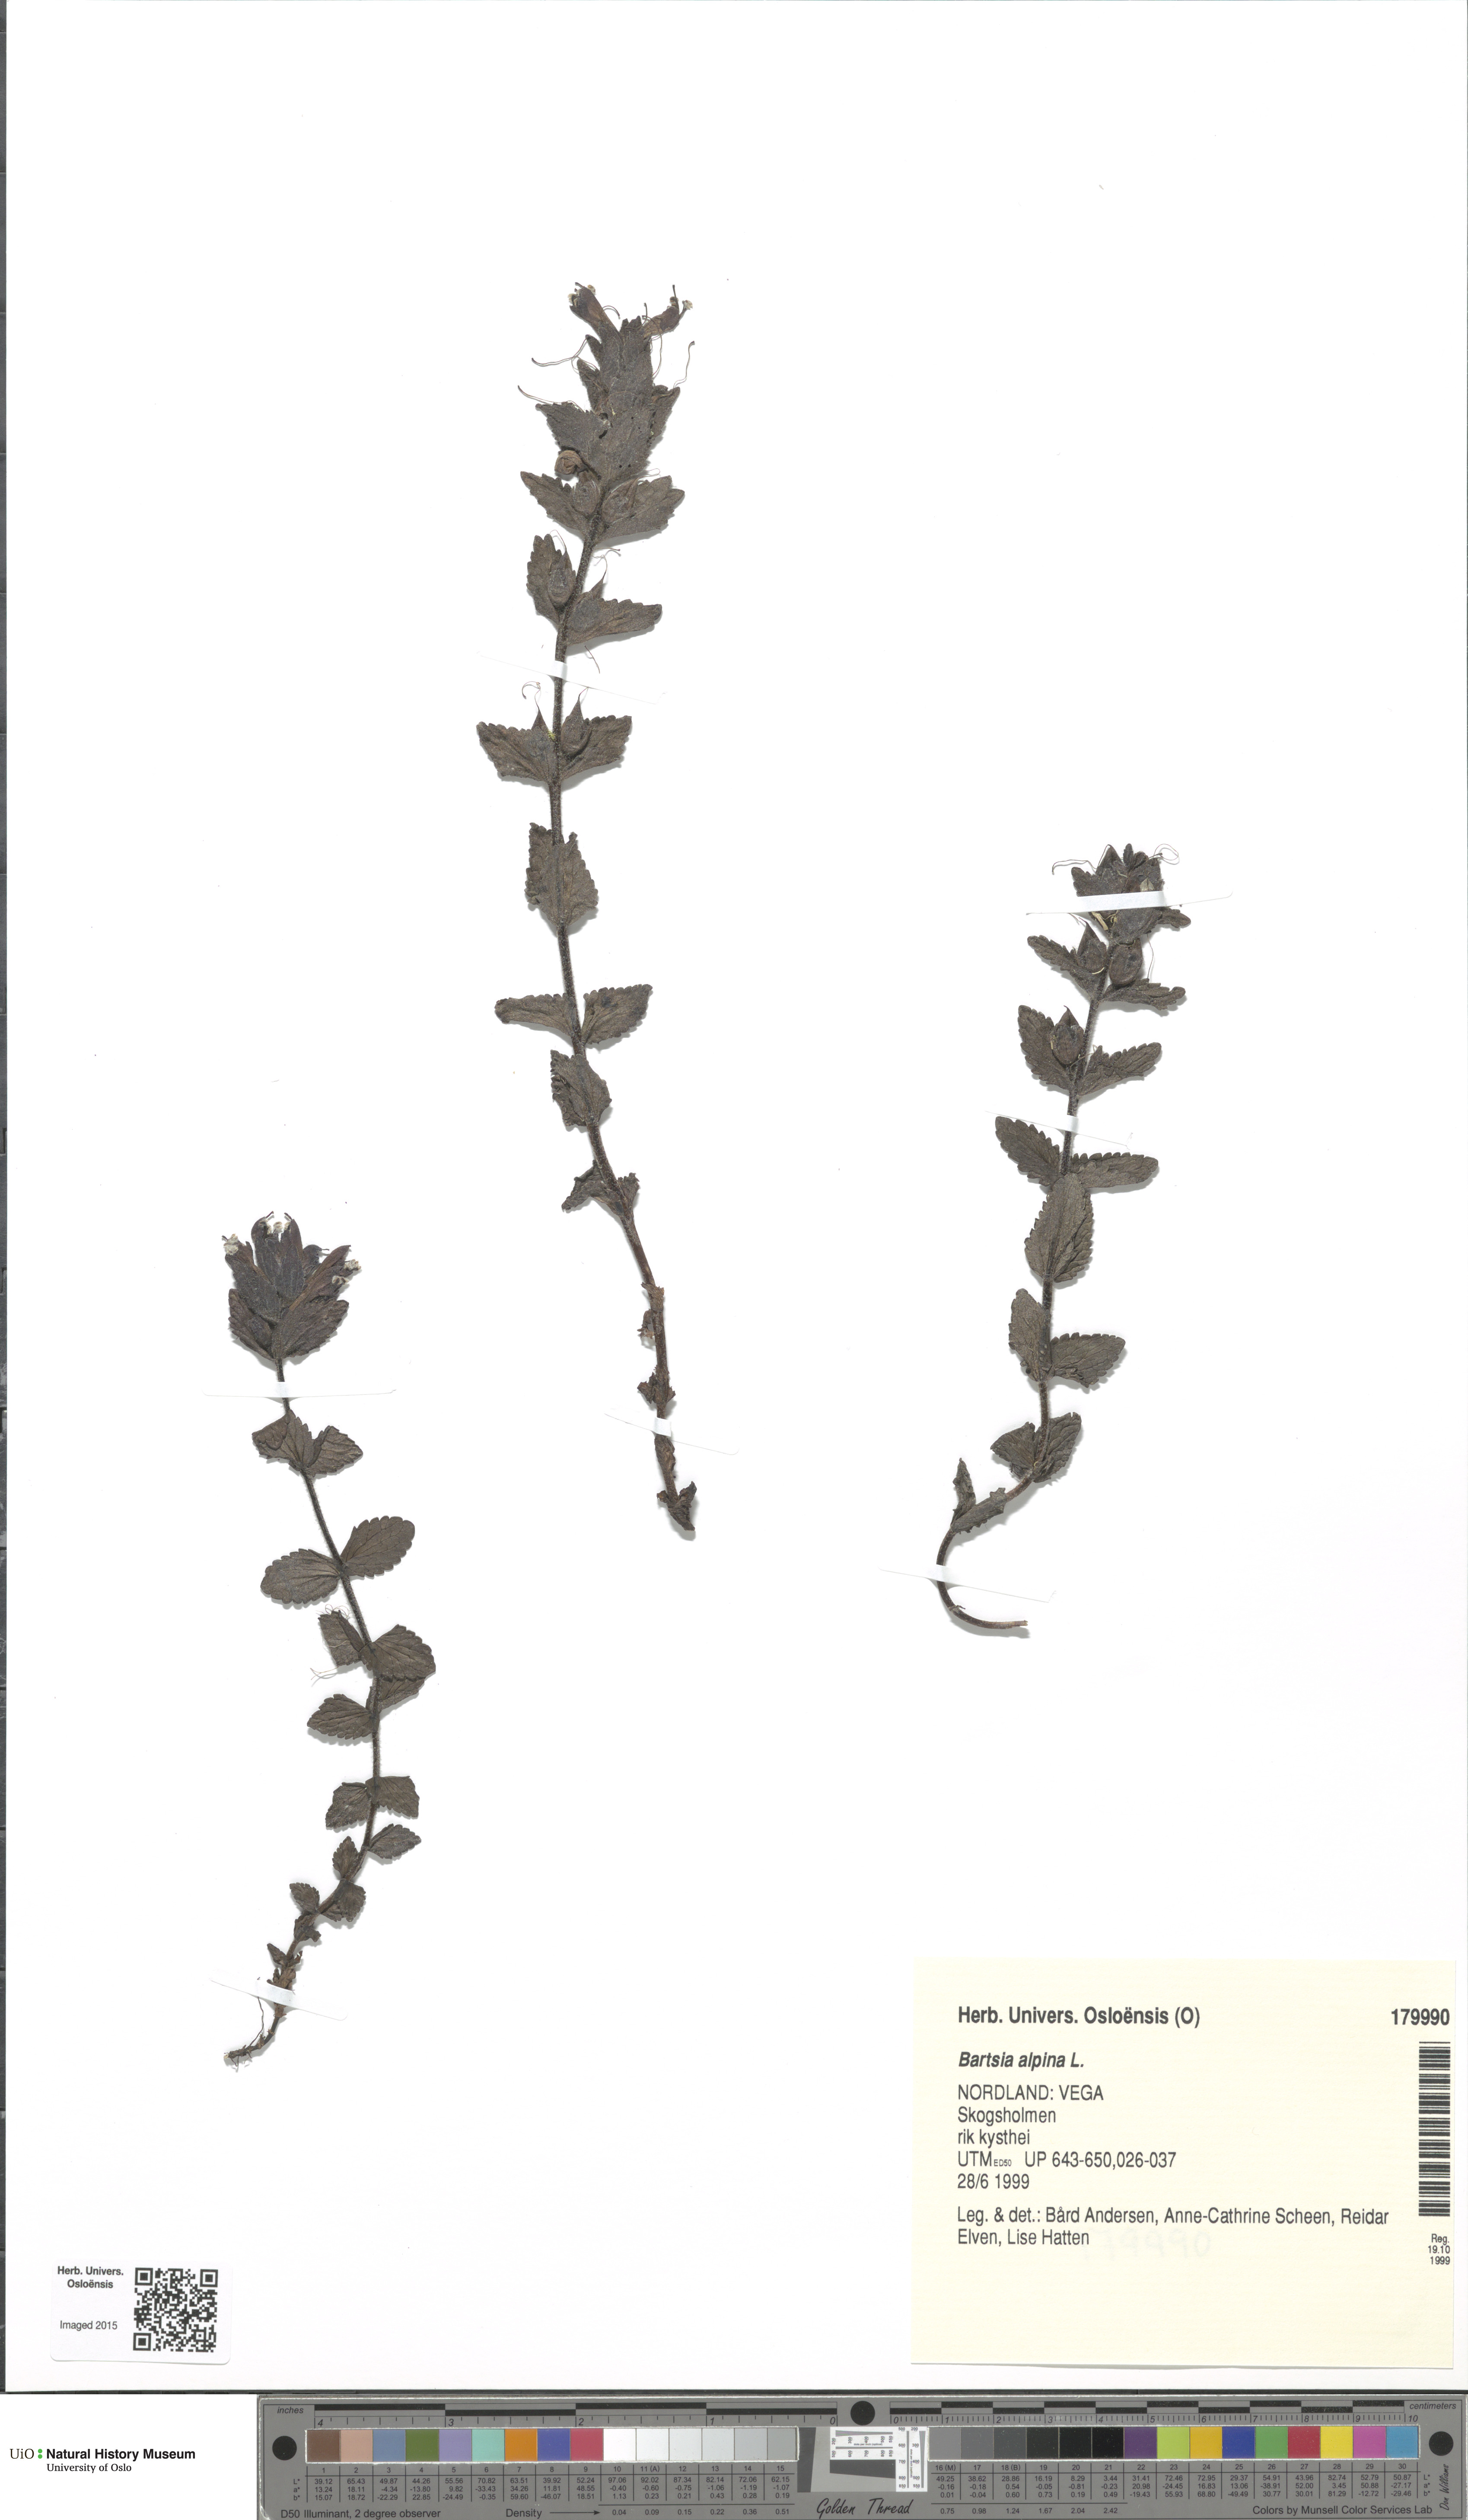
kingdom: Plantae
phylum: Tracheophyta
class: Magnoliopsida
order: Lamiales
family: Orobanchaceae
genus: Bartsia
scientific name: Bartsia alpina
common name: Alpine bartsia
